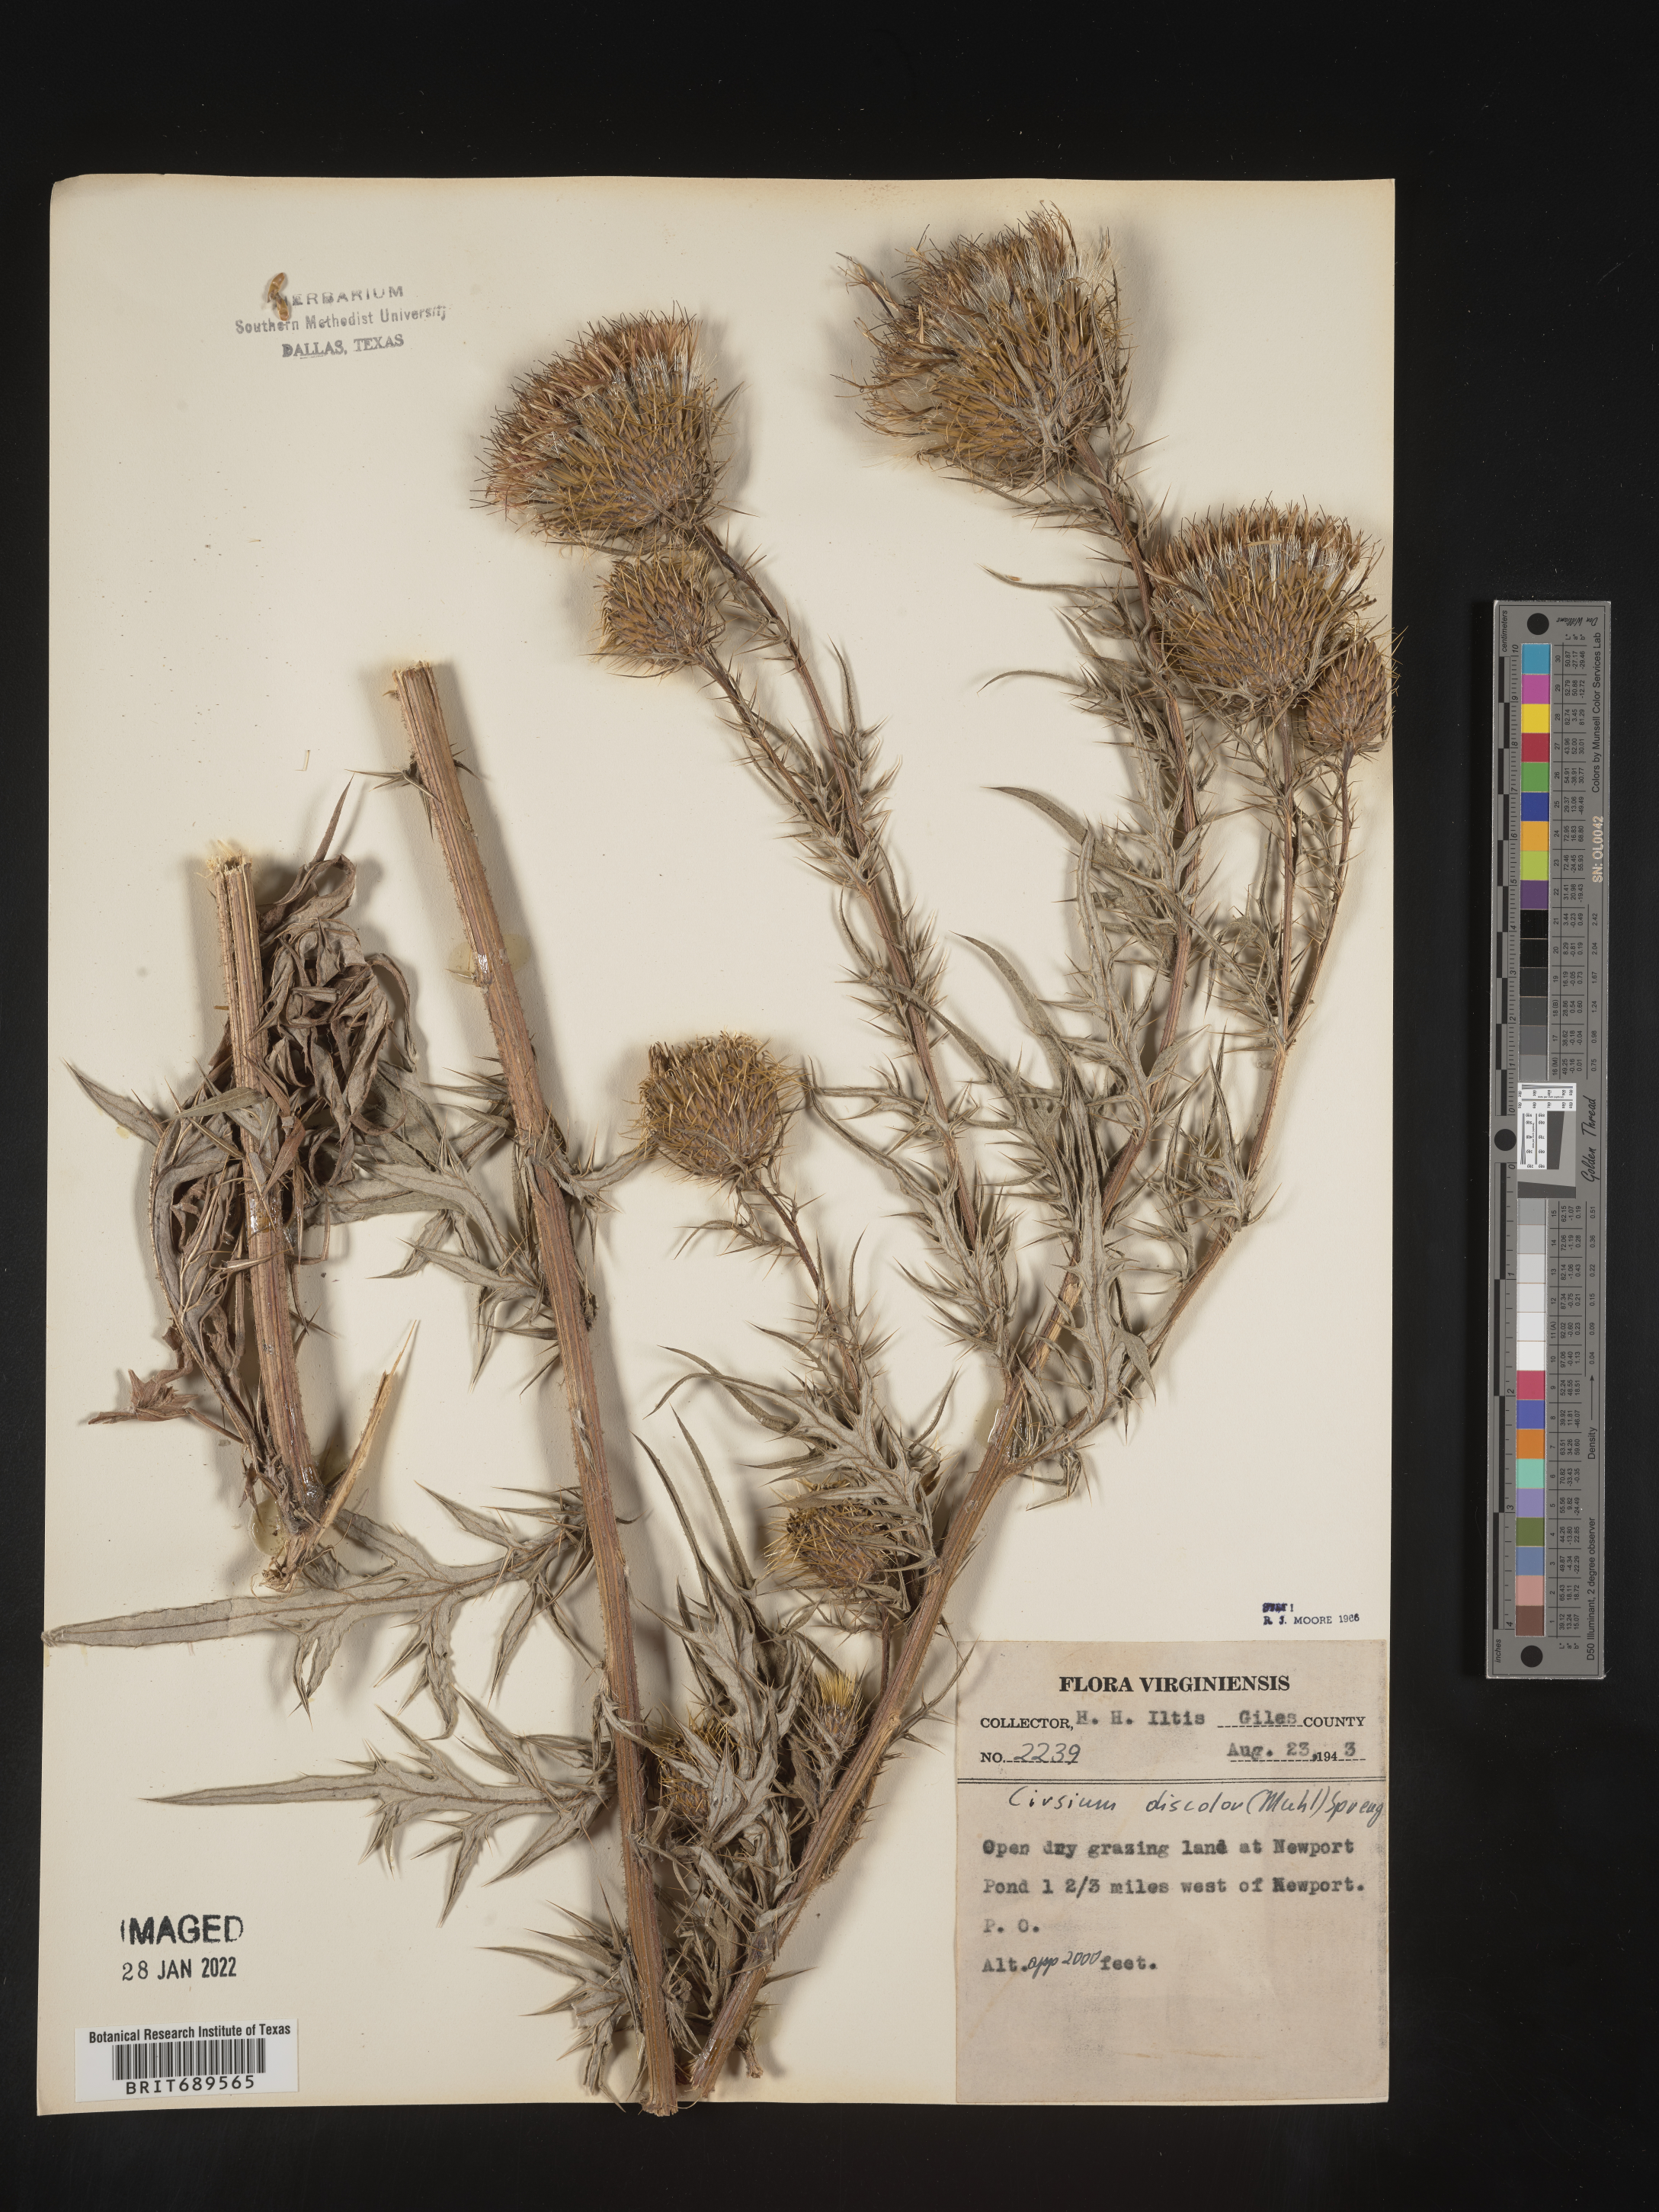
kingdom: Plantae
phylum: Tracheophyta
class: Magnoliopsida
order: Asterales
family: Asteraceae
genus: Cirsium
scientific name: Cirsium discolor
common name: Field thistle
